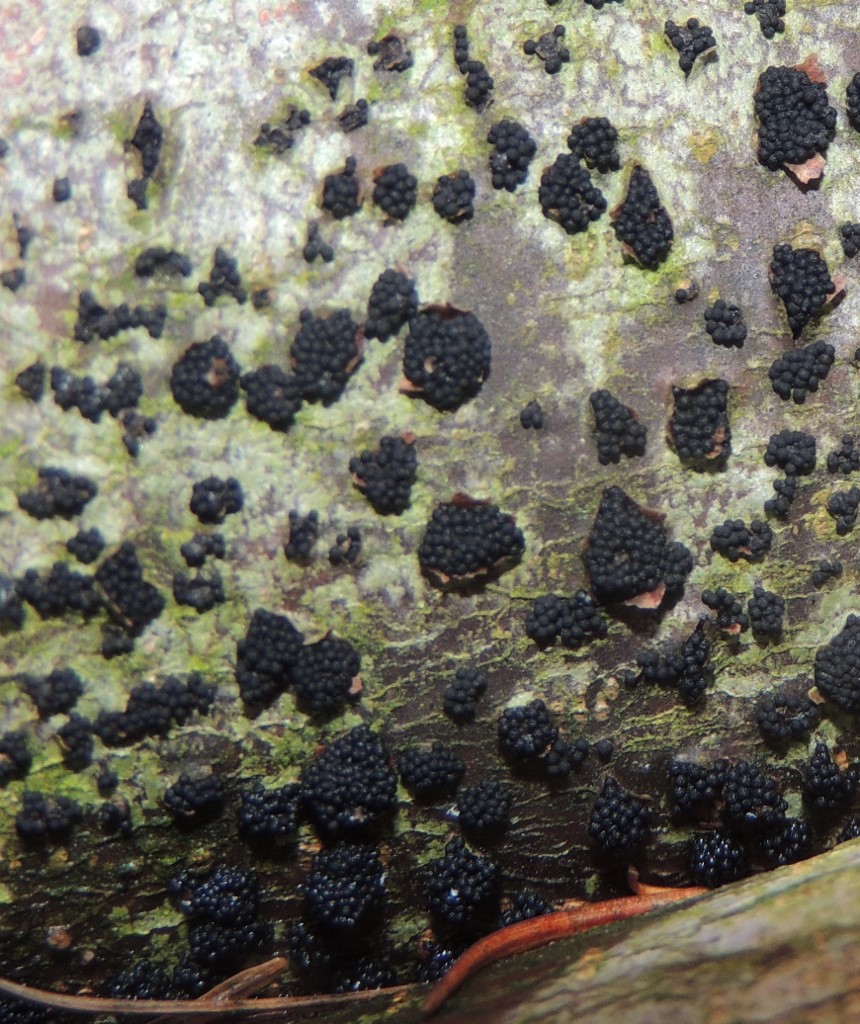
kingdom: Fungi
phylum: Ascomycota
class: Sordariomycetes
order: Coronophorales
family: Nitschkiaceae
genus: Nitschkia
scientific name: Nitschkia parasitans
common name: snyltende skålkerne
